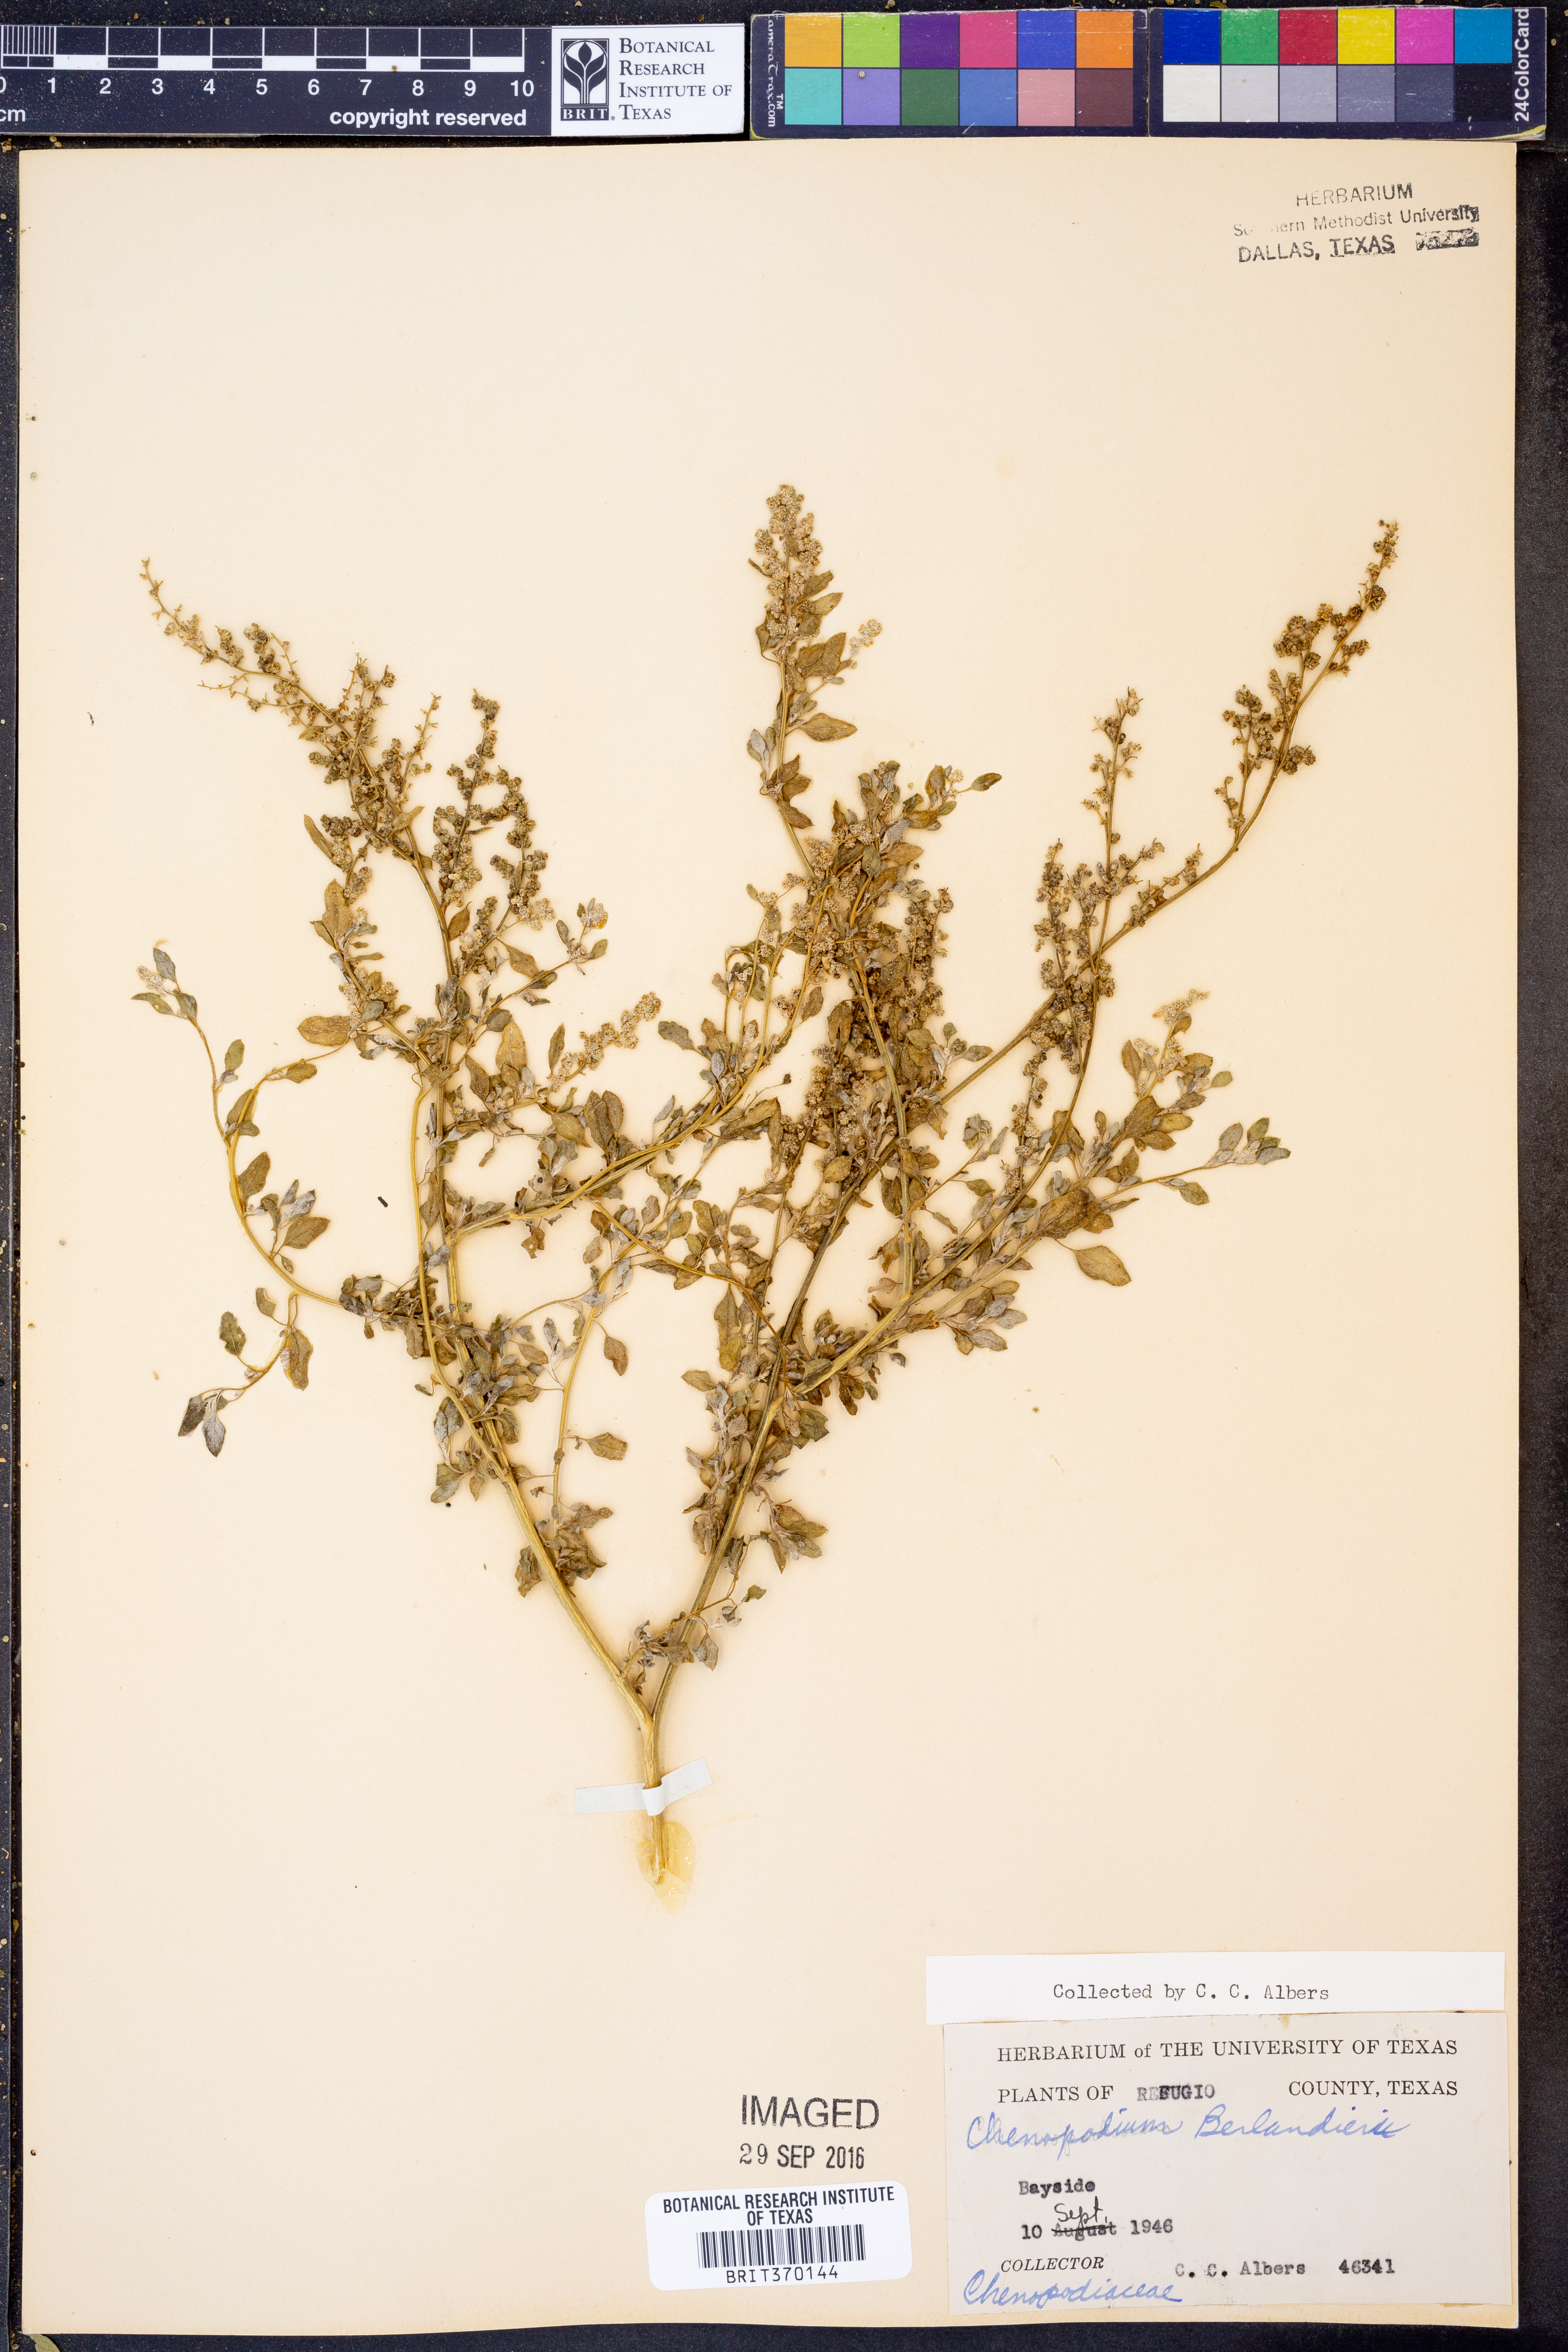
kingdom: Plantae
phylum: Tracheophyta
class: Magnoliopsida
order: Caryophyllales
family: Amaranthaceae
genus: Chenopodium
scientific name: Chenopodium berlandieri
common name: Pit-seed goosefoot
